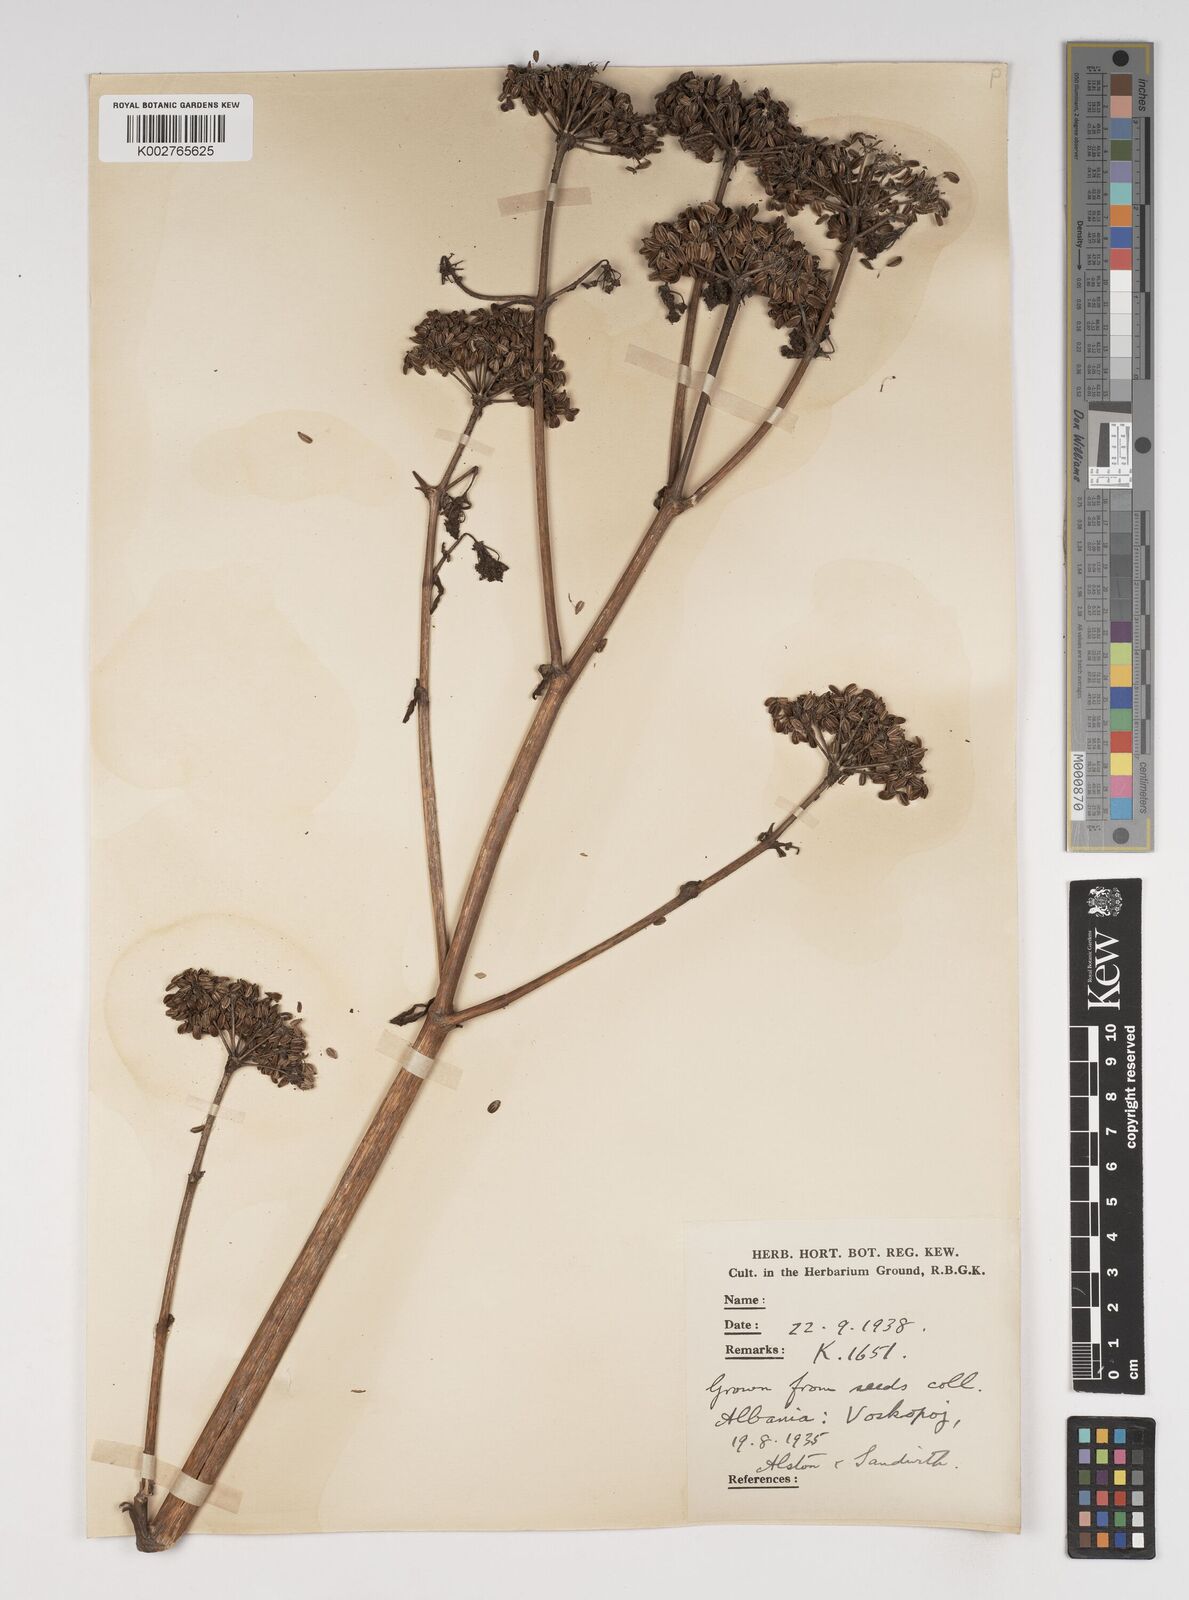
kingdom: Plantae
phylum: Tracheophyta
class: Magnoliopsida
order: Apiales
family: Apiaceae
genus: Levisticum
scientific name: Levisticum officinale
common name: Lovage
